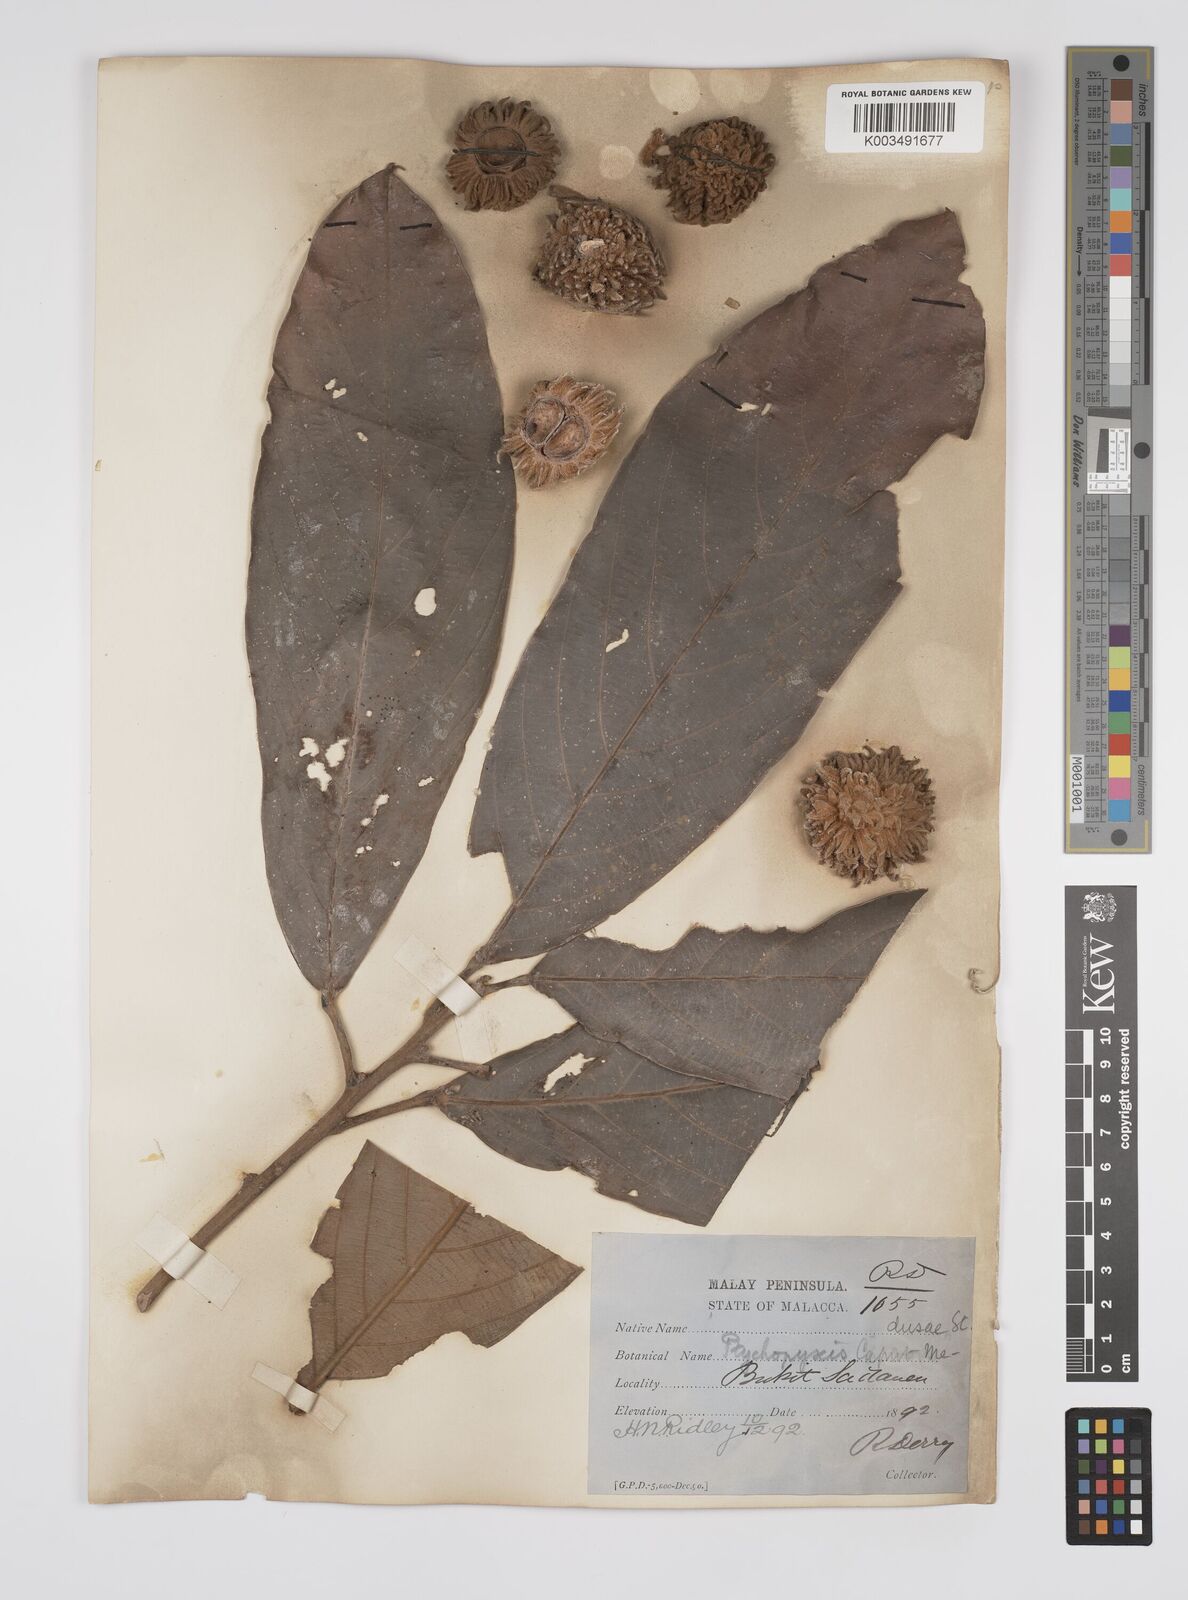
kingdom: Plantae
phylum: Tracheophyta
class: Magnoliopsida
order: Malpighiales
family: Euphorbiaceae
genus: Ptychopyxis
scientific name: Ptychopyxis caput-medusae
